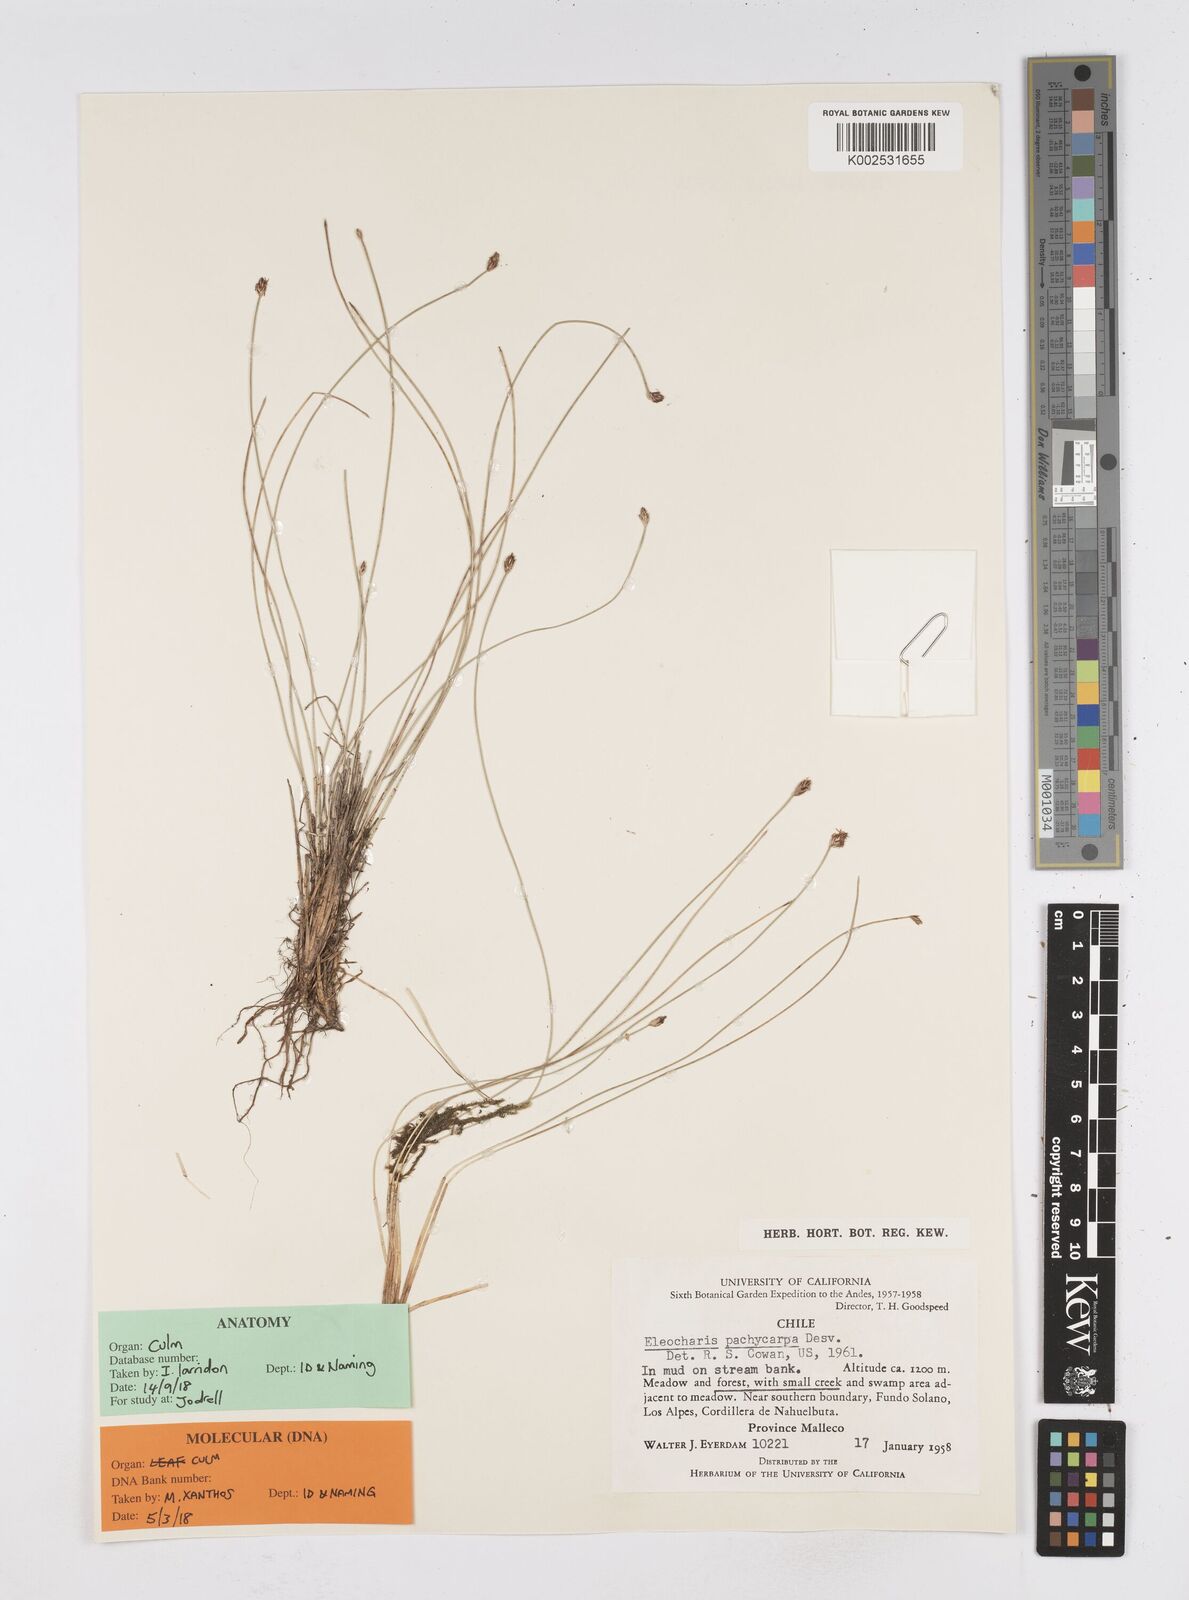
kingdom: Plantae
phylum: Tracheophyta
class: Liliopsida
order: Poales
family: Cyperaceae
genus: Eleocharis
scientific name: Eleocharis pachycarpa
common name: Black sand spikerush
